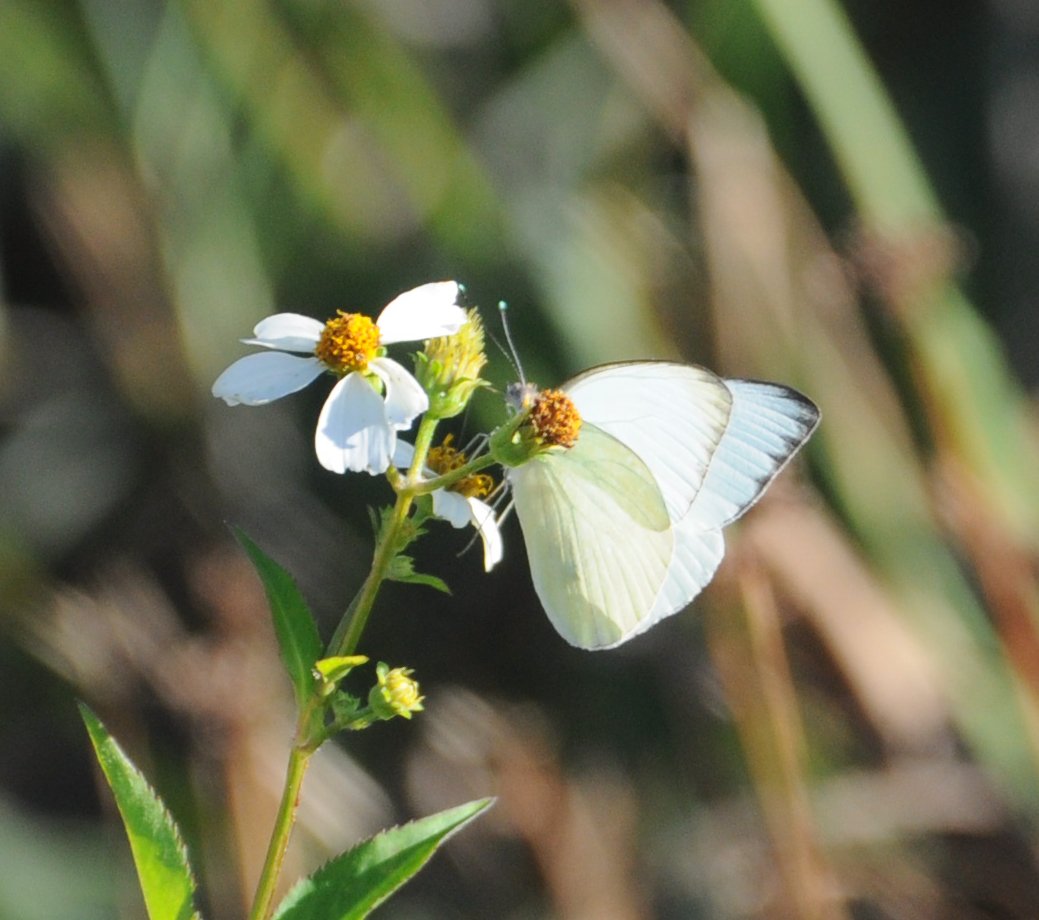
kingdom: Animalia
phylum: Arthropoda
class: Insecta
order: Lepidoptera
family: Pieridae
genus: Ascia
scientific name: Ascia monuste
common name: Great Southern White
